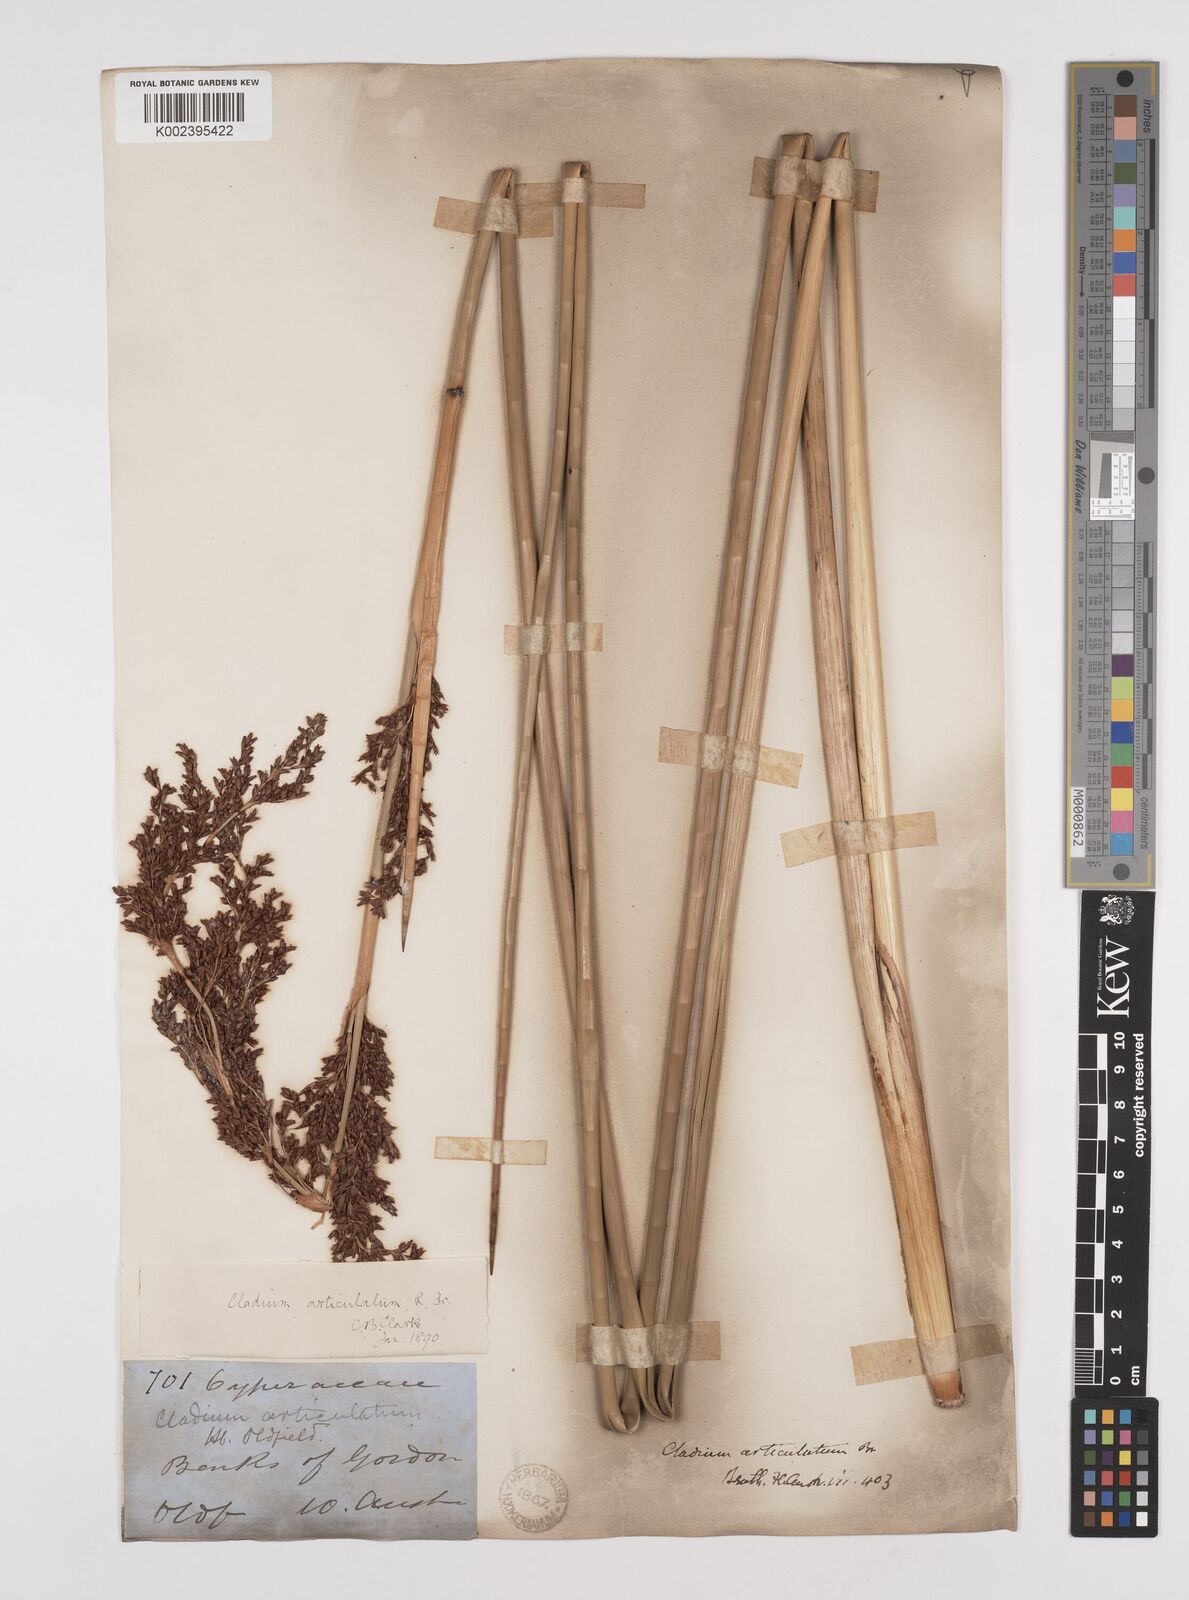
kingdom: Plantae
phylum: Tracheophyta
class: Liliopsida
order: Poales
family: Cyperaceae
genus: Machaerina
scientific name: Machaerina articulata
